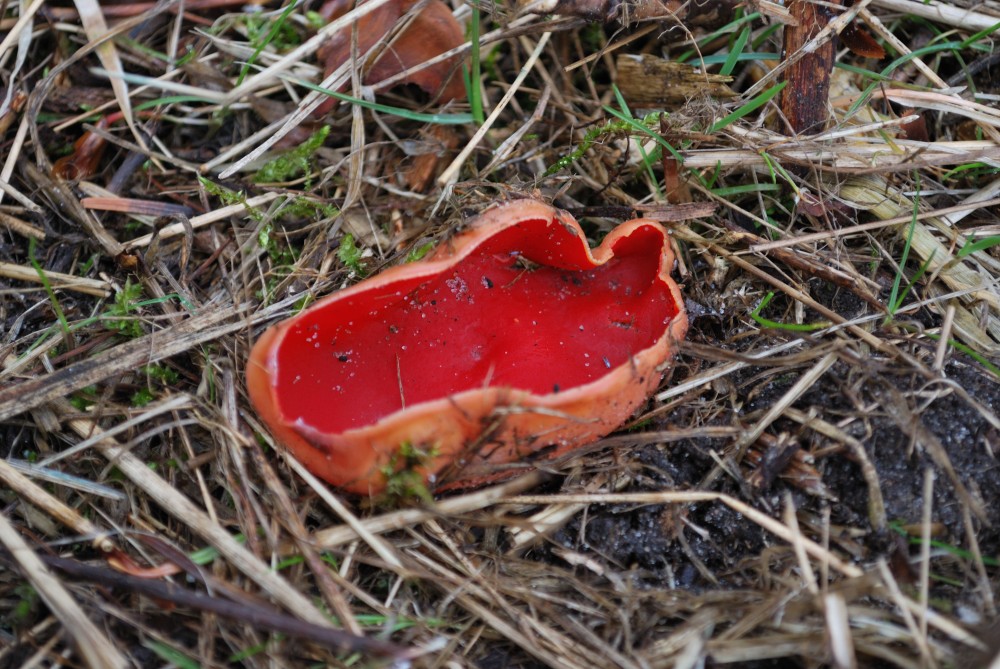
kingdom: Fungi
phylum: Ascomycota
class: Pezizomycetes
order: Pezizales
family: Sarcoscyphaceae
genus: Sarcoscypha
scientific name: Sarcoscypha austriaca
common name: krølhåret pragtbæger
